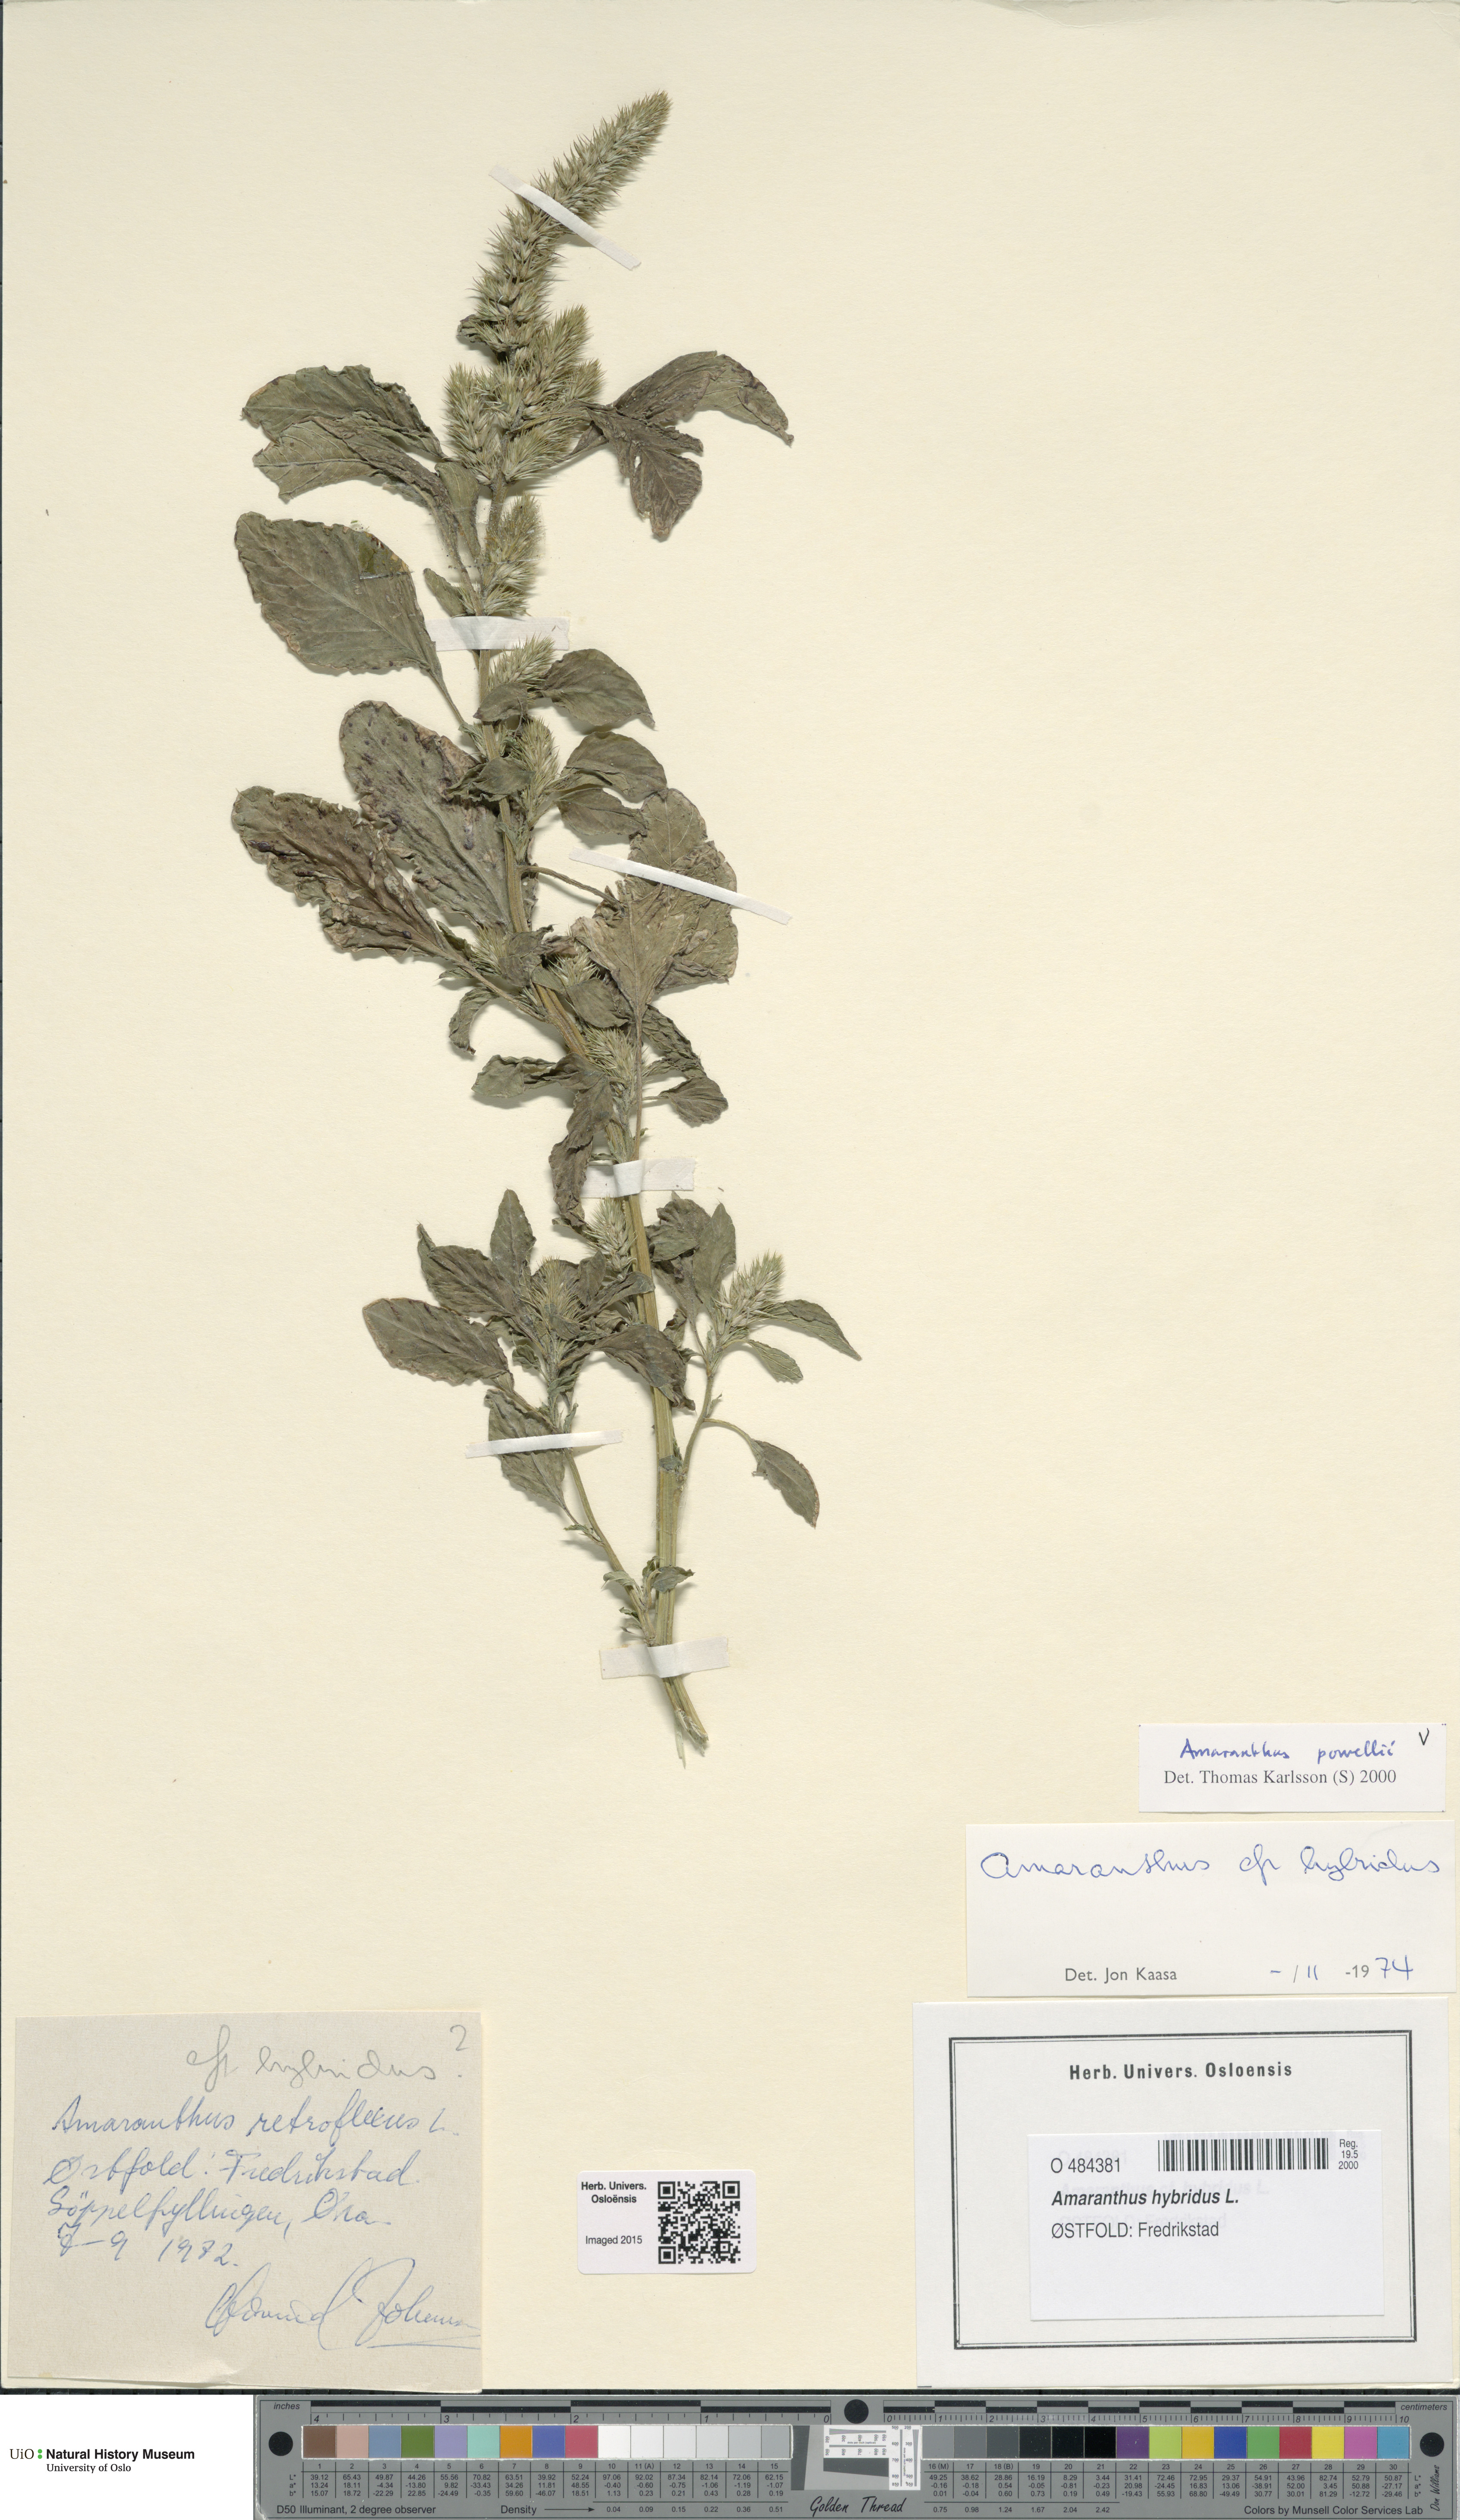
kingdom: Plantae
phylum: Tracheophyta
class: Magnoliopsida
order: Caryophyllales
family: Amaranthaceae
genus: Amaranthus
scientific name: Amaranthus powellii
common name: Powell's amaranth
